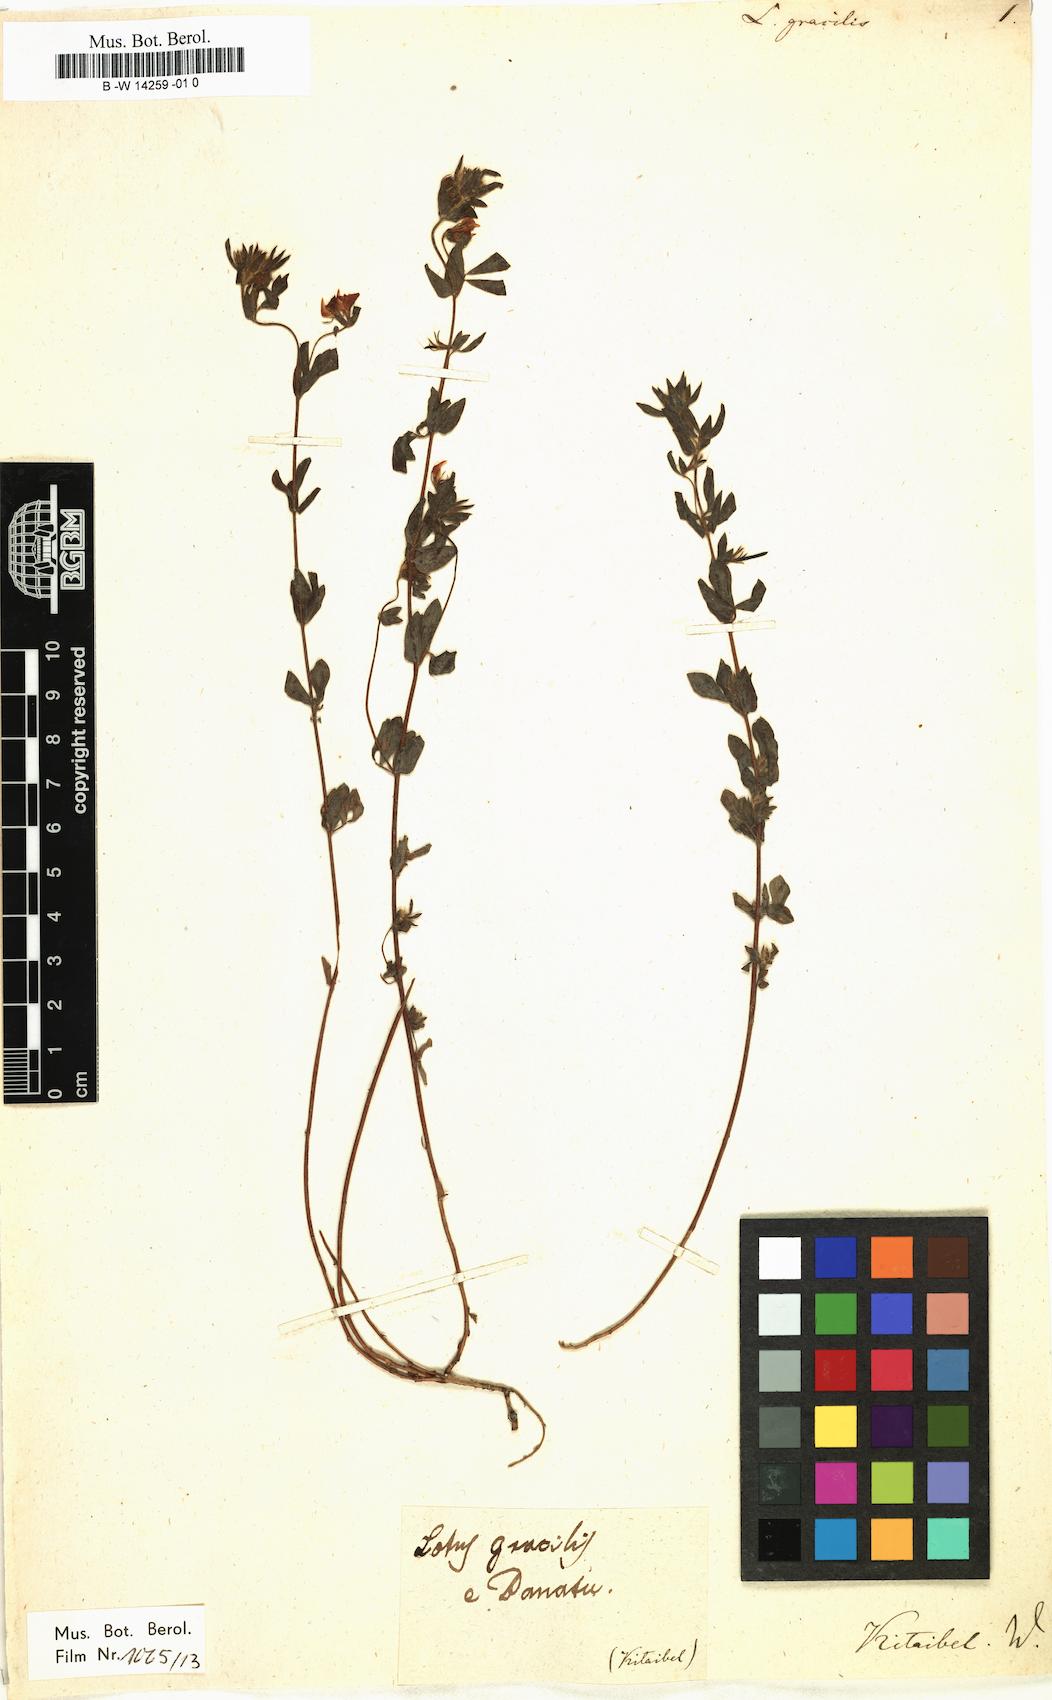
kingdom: Plantae
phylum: Tracheophyta
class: Magnoliopsida
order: Fabales
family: Fabaceae
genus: Lotus
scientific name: Lotus dorycnium
